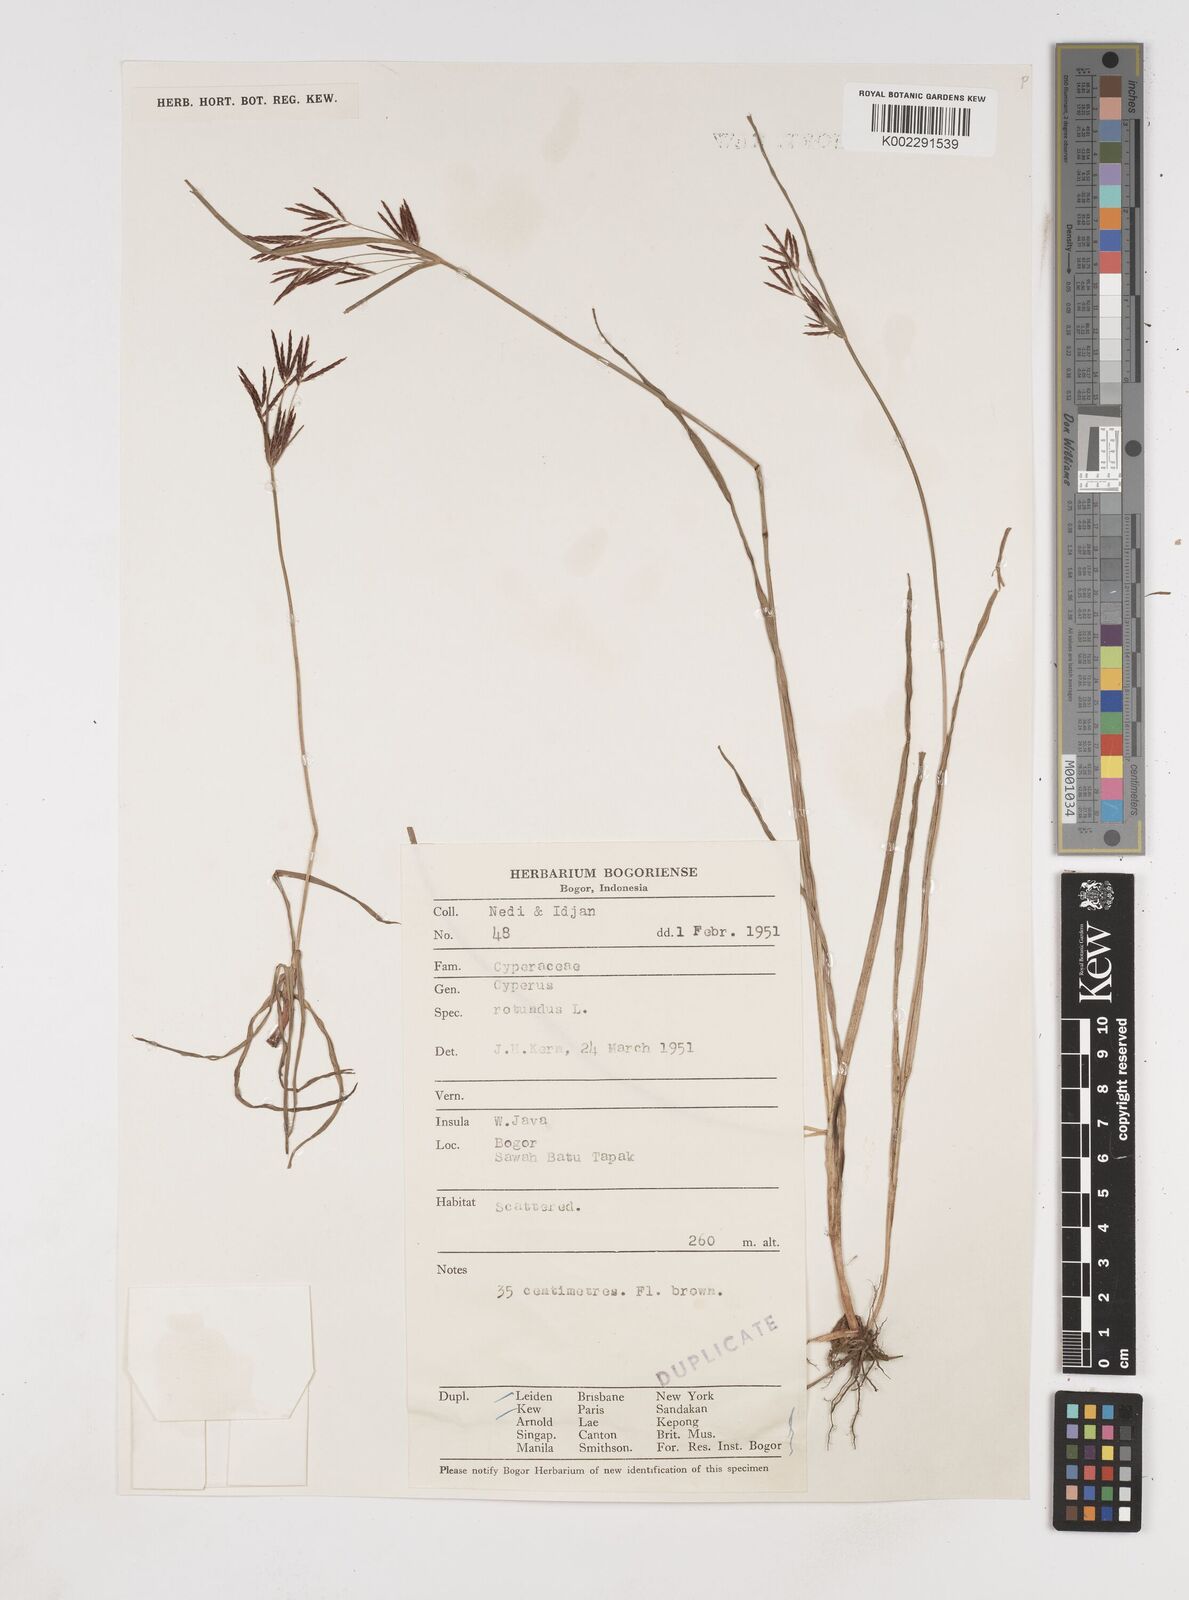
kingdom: Plantae
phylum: Tracheophyta
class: Liliopsida
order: Poales
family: Cyperaceae
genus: Cyperus
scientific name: Cyperus rotundus
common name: Nutgrass
